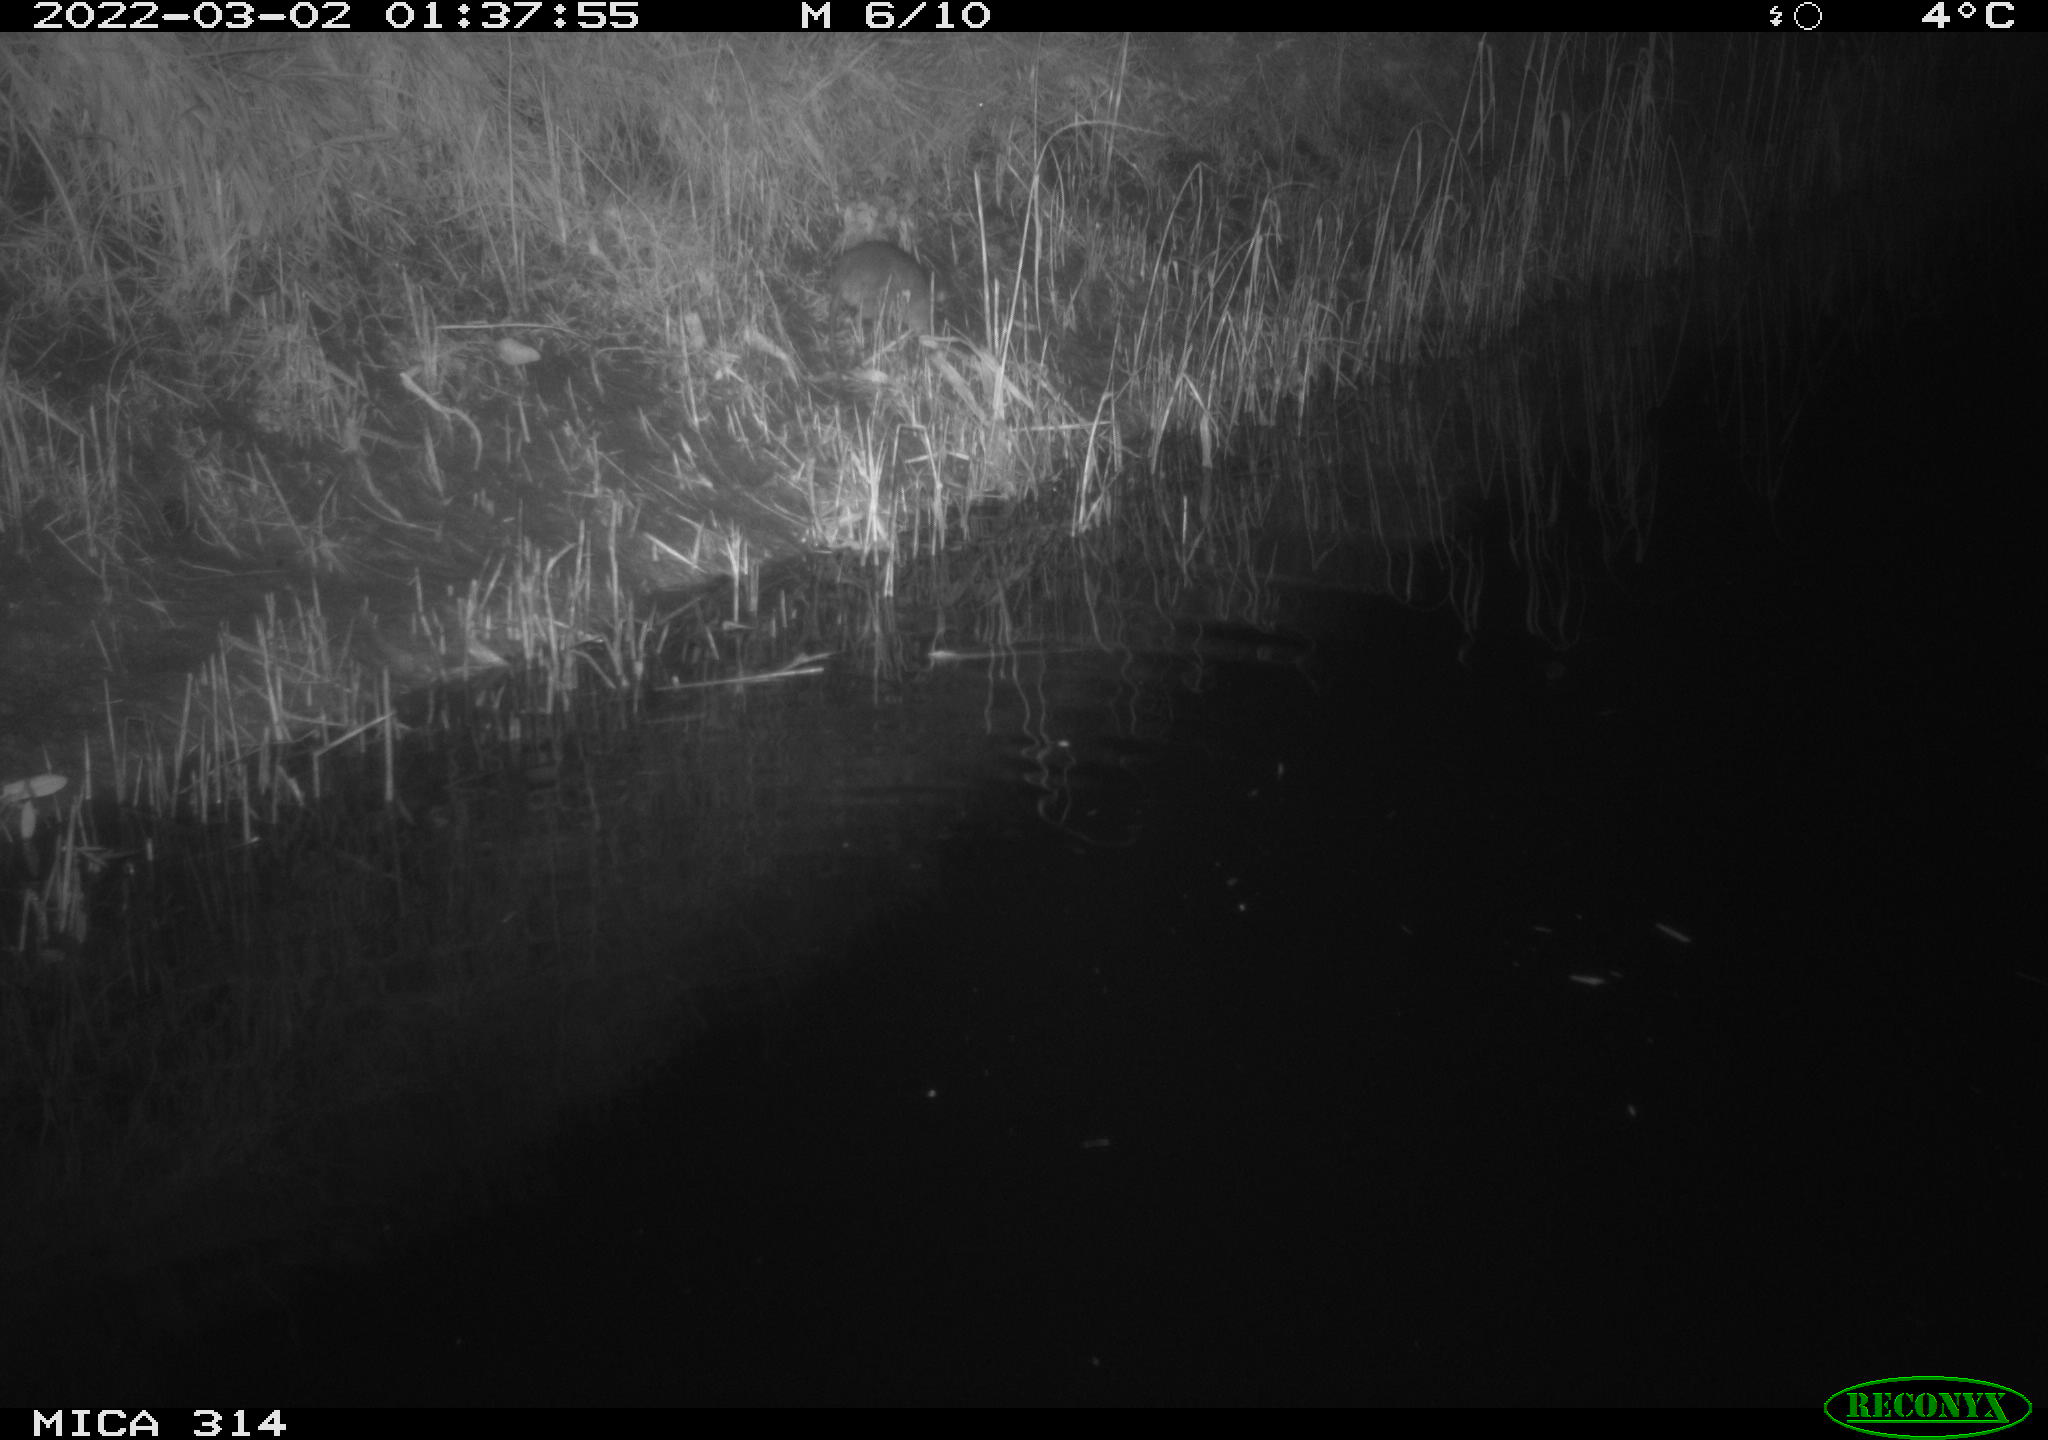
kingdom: Animalia
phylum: Chordata
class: Mammalia
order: Rodentia
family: Muridae
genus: Rattus
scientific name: Rattus norvegicus
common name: Brown rat
